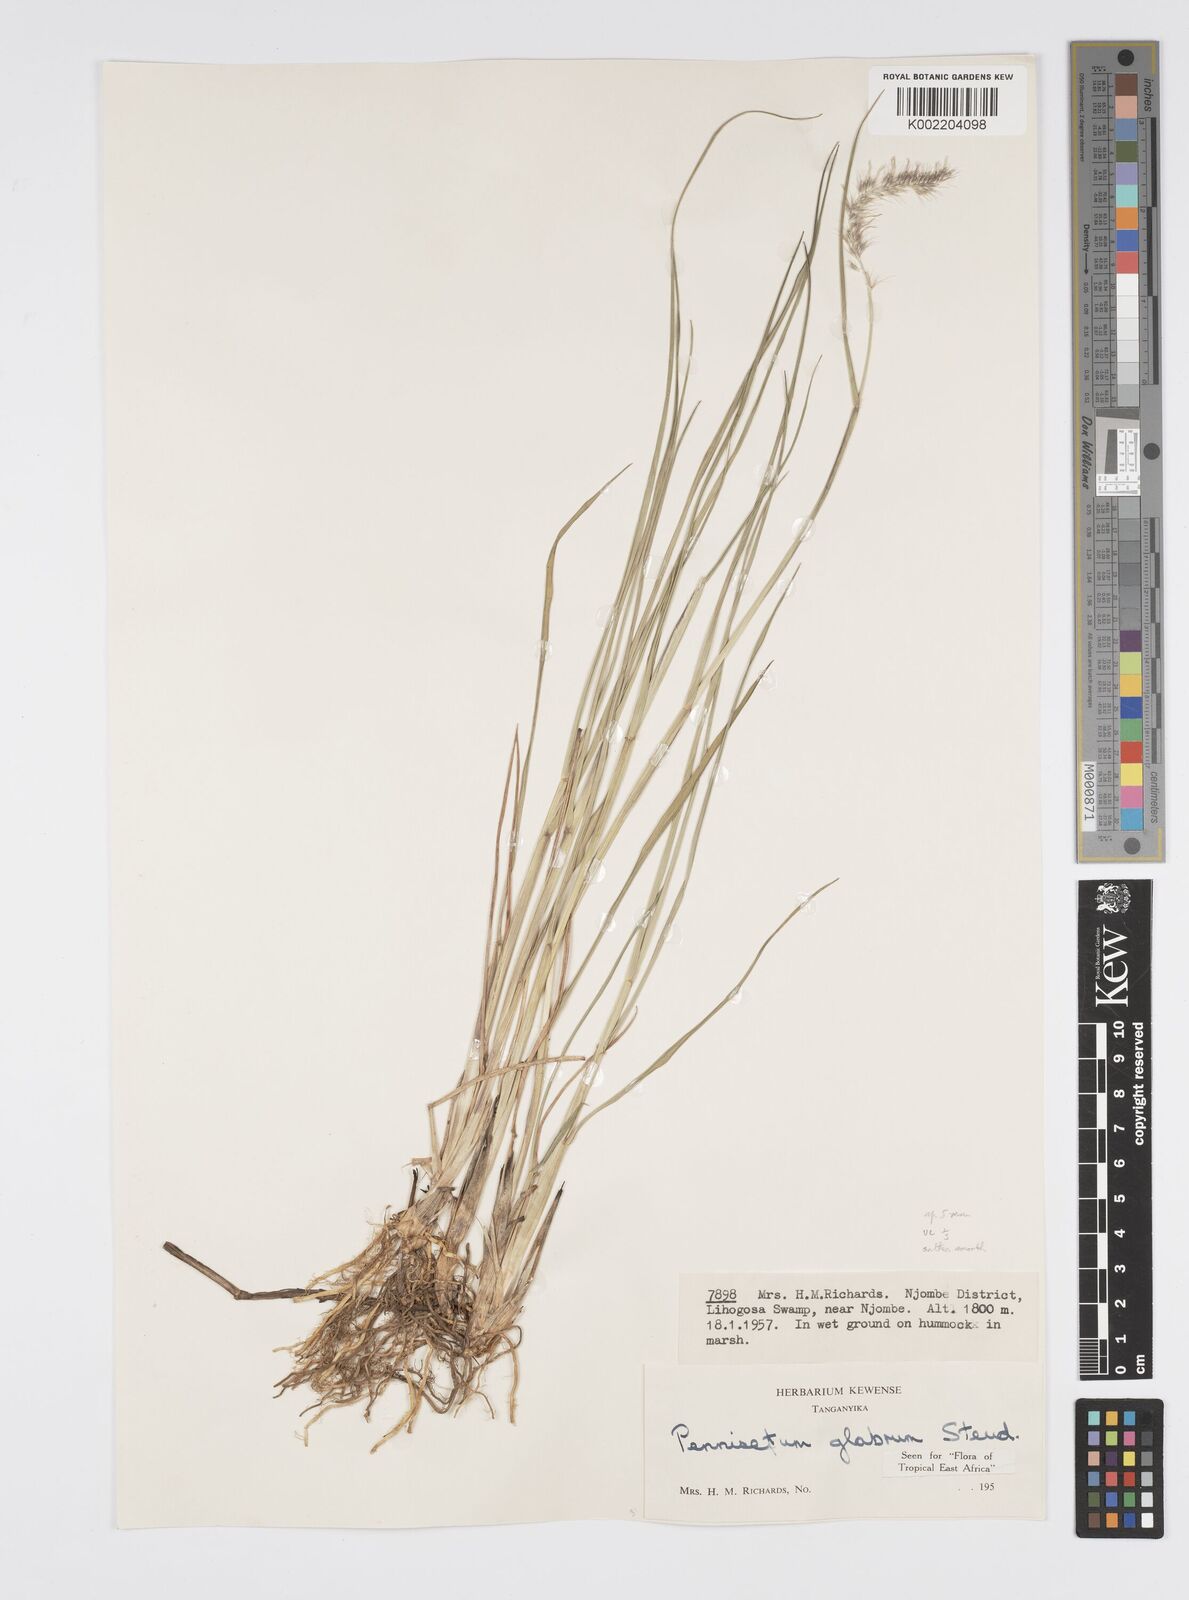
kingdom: Plantae
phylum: Tracheophyta
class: Liliopsida
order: Poales
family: Poaceae
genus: Cenchrus
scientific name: Cenchrus geniculatus
